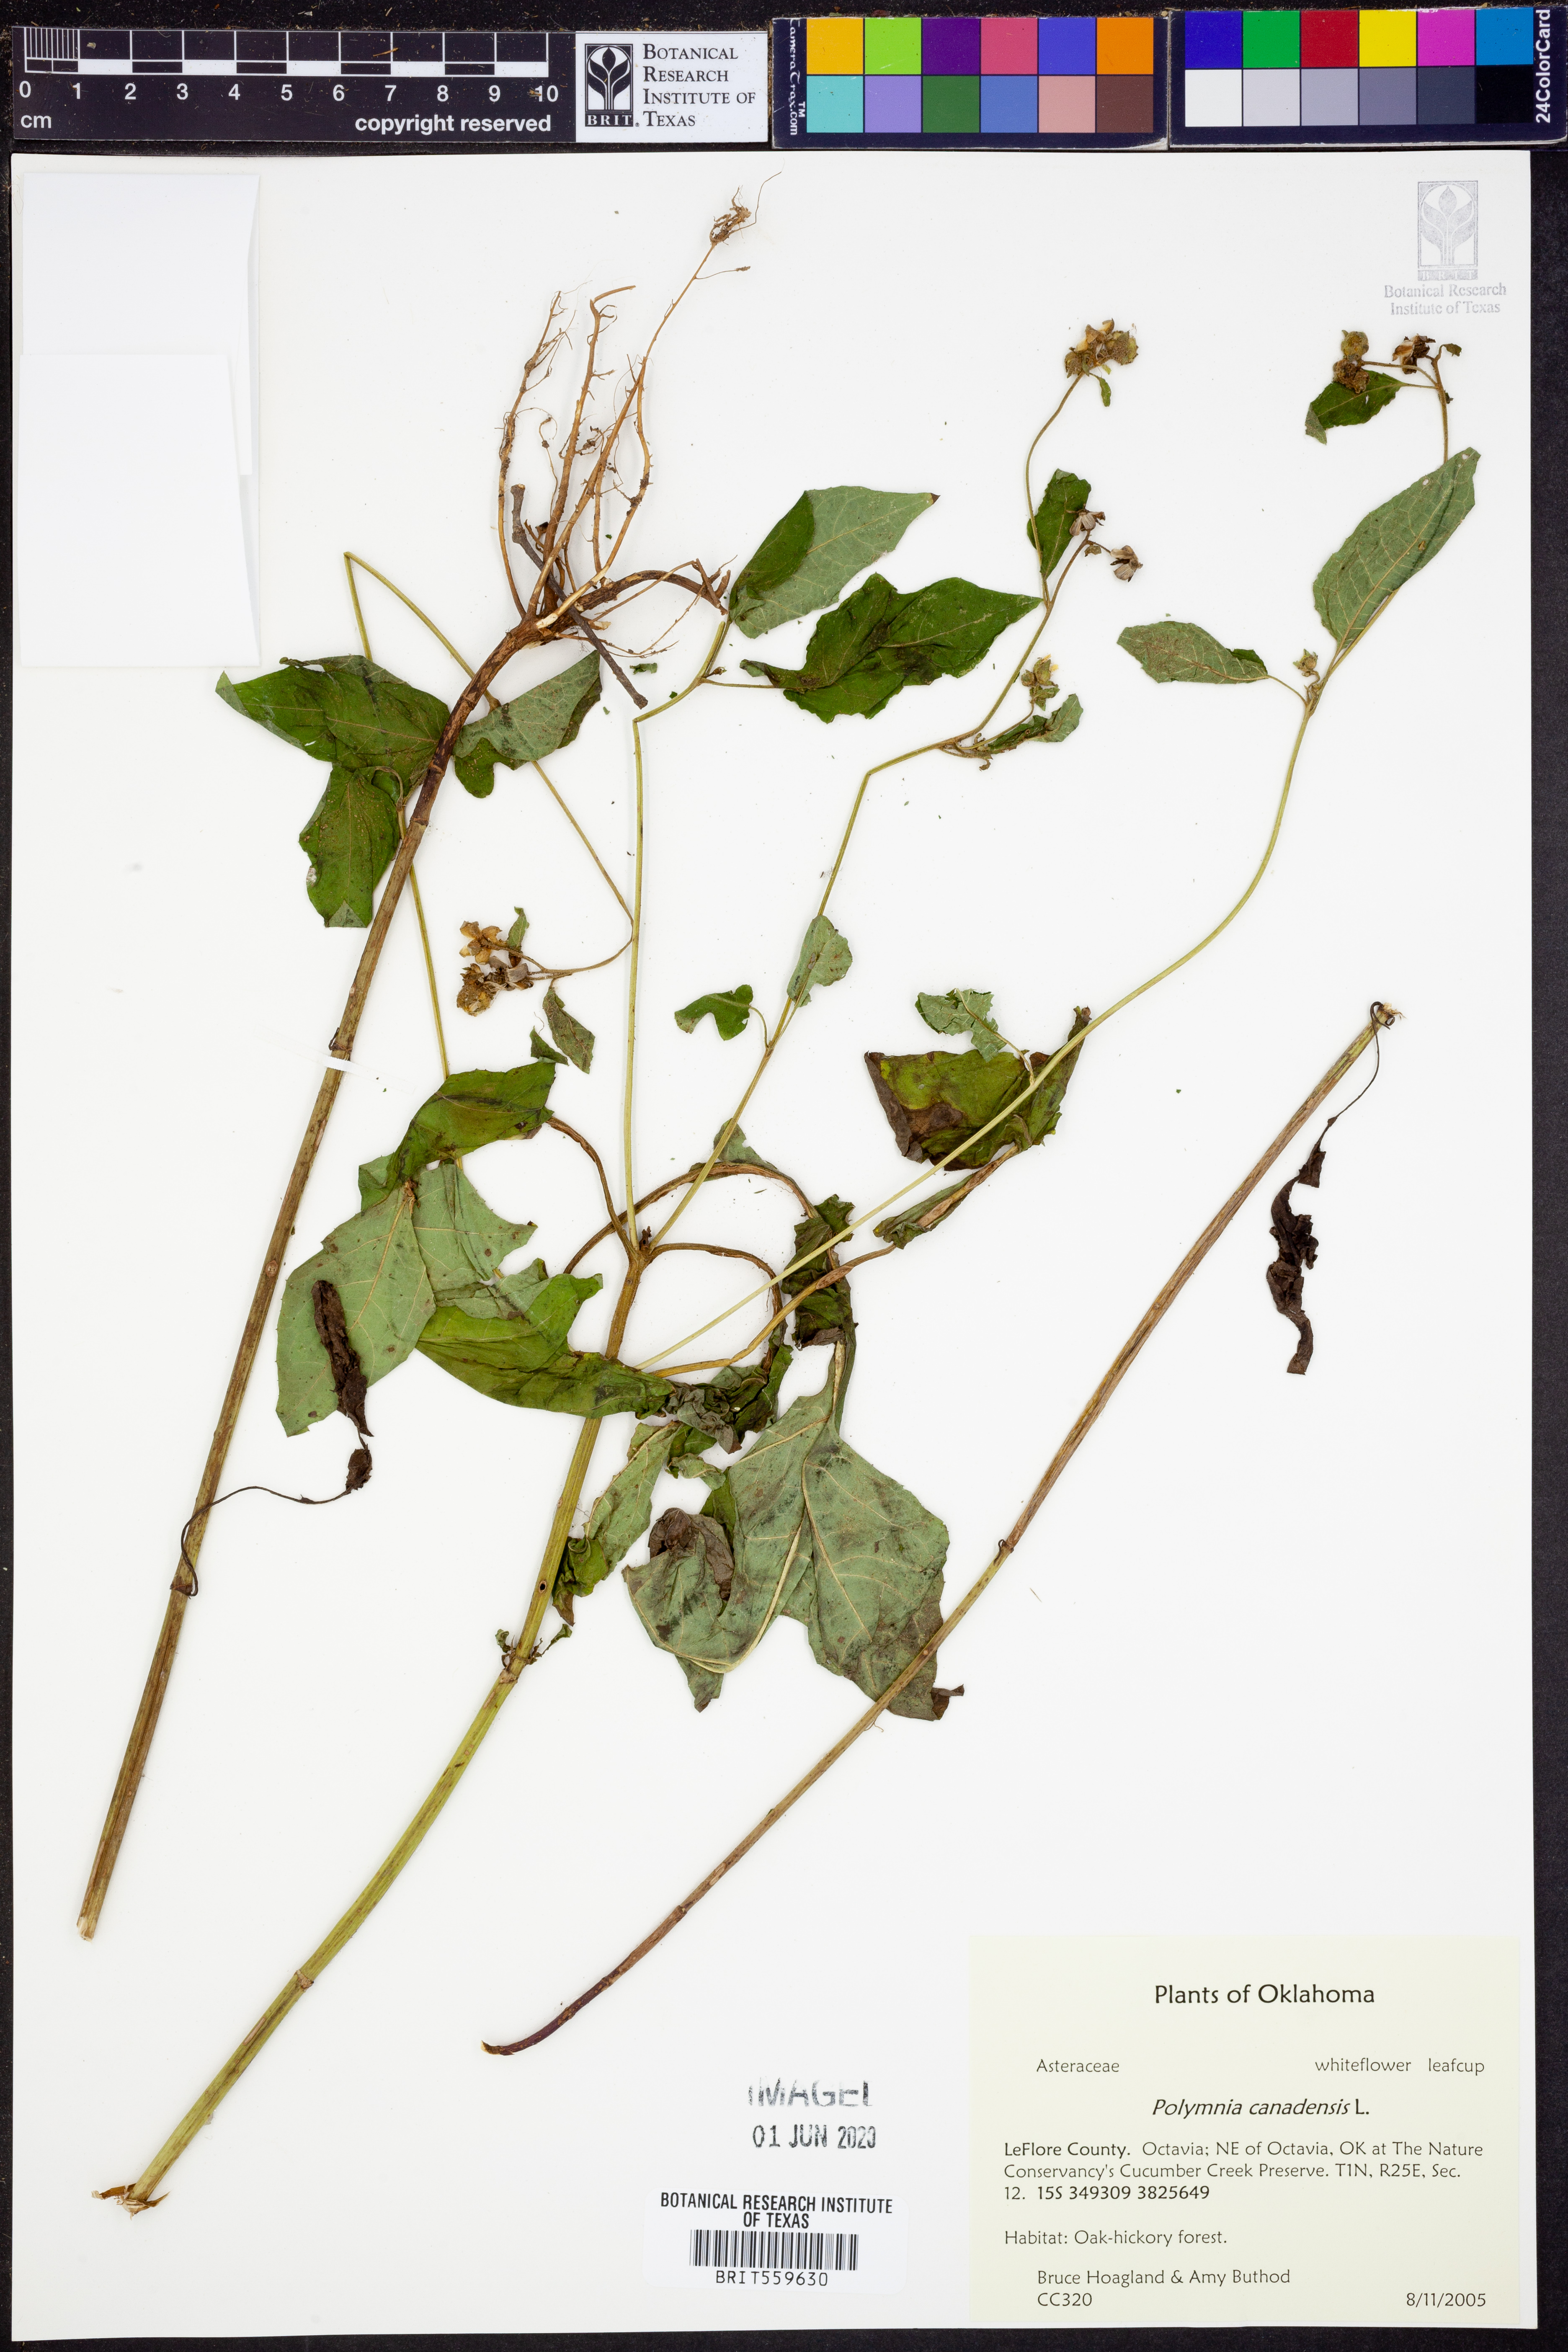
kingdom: Plantae
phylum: Tracheophyta
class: Magnoliopsida
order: Asterales
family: Asteraceae
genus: Polymnia
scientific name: Polymnia canadensis
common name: Pale-flowered leafcup
